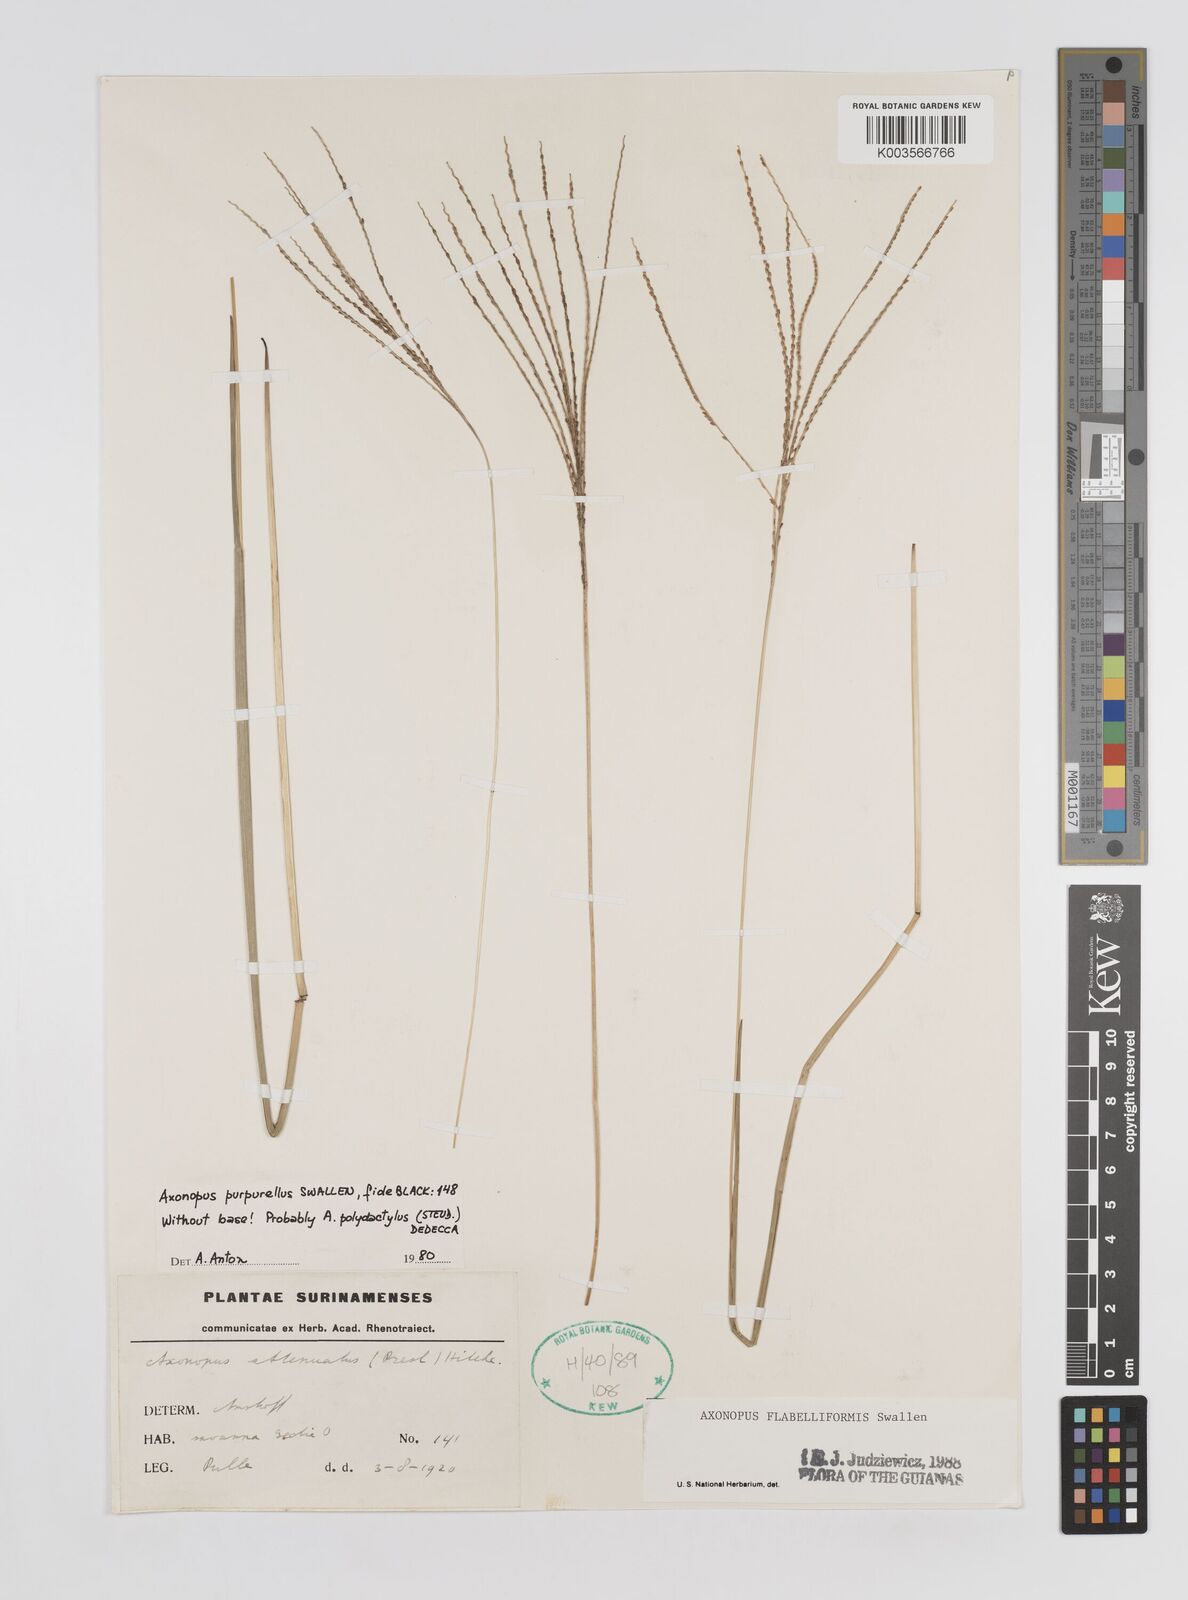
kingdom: Plantae
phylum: Tracheophyta
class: Liliopsida
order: Poales
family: Poaceae
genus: Axonopus
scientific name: Axonopus flabelliformis
